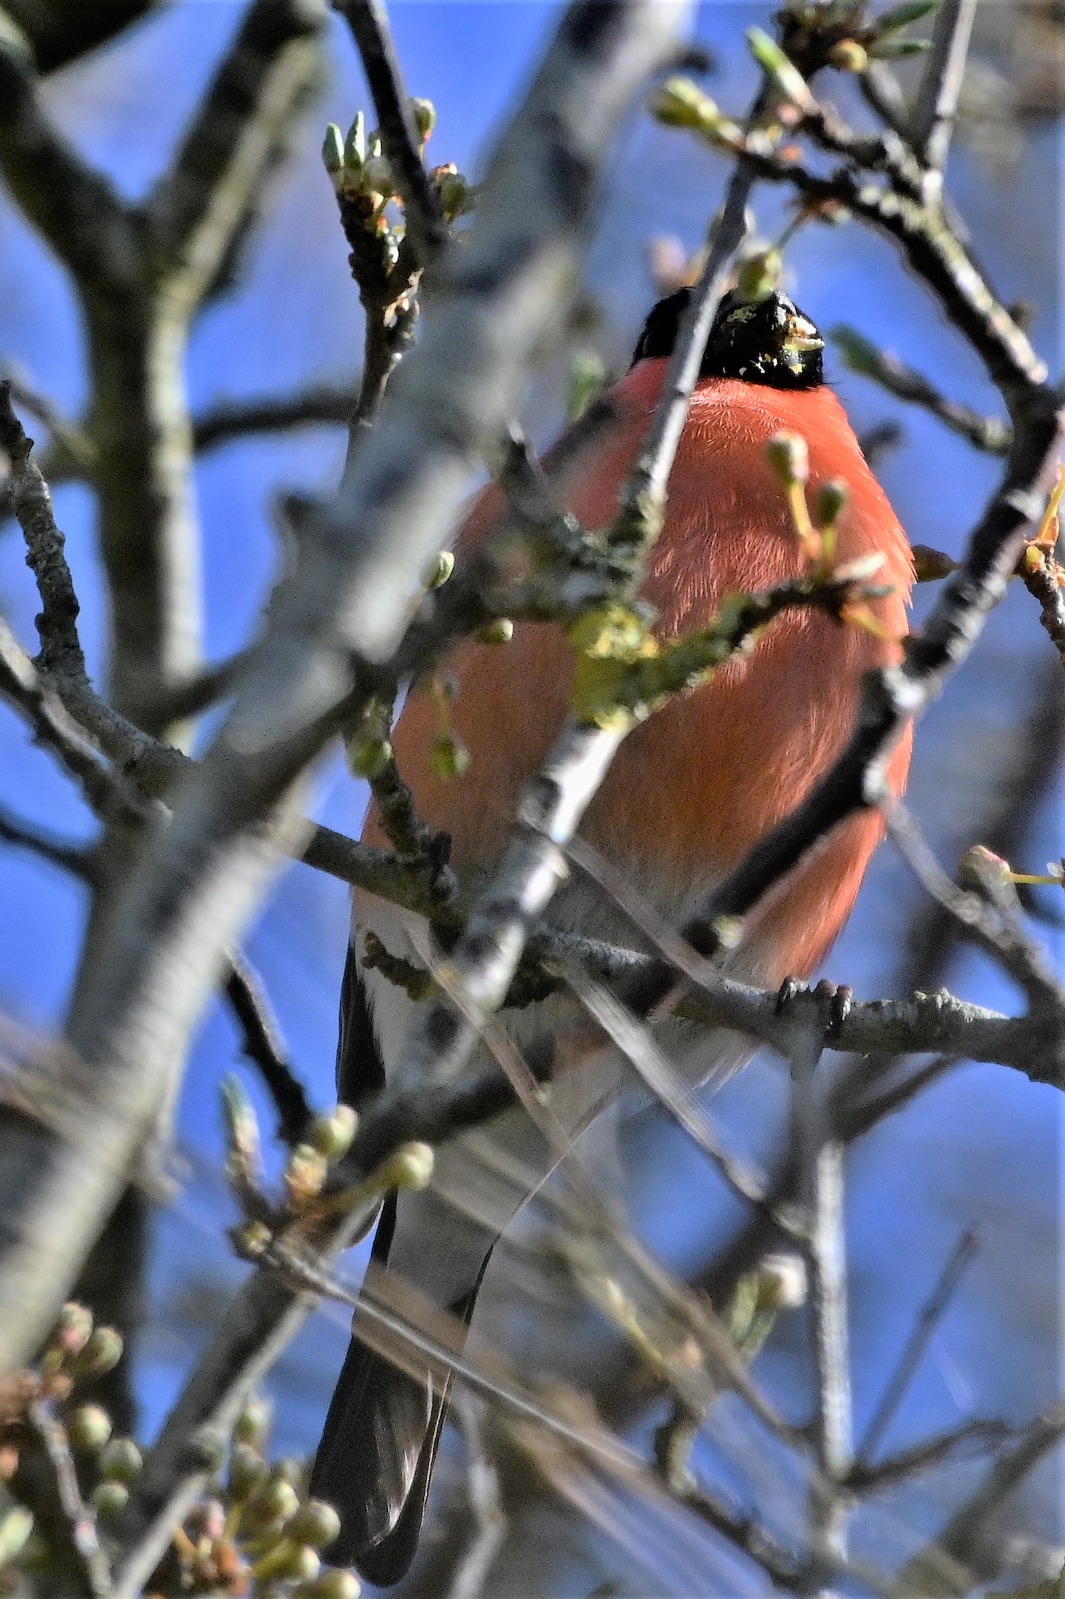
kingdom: Animalia
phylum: Chordata
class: Aves
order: Passeriformes
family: Fringillidae
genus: Pyrrhula
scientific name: Pyrrhula pyrrhula
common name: Dompap
